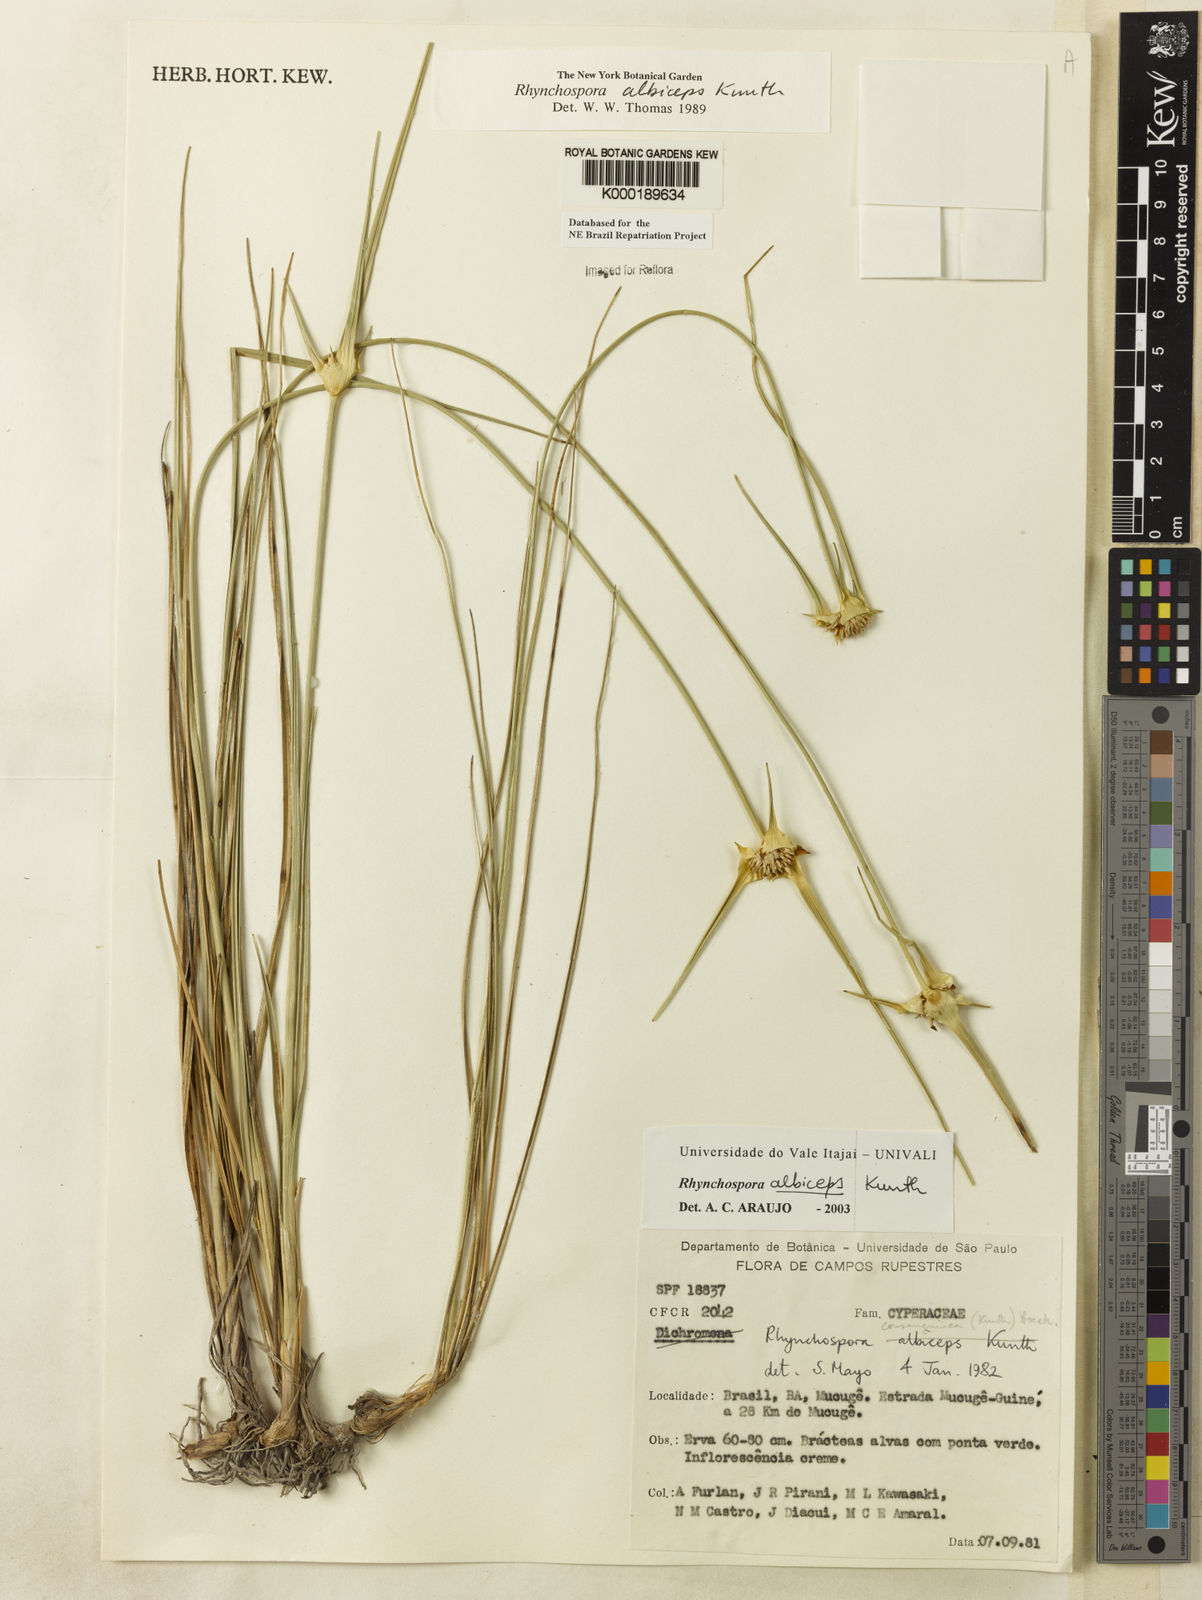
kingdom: Plantae
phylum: Tracheophyta
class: Liliopsida
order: Poales
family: Cyperaceae
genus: Rhynchospora
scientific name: Rhynchospora albiceps
